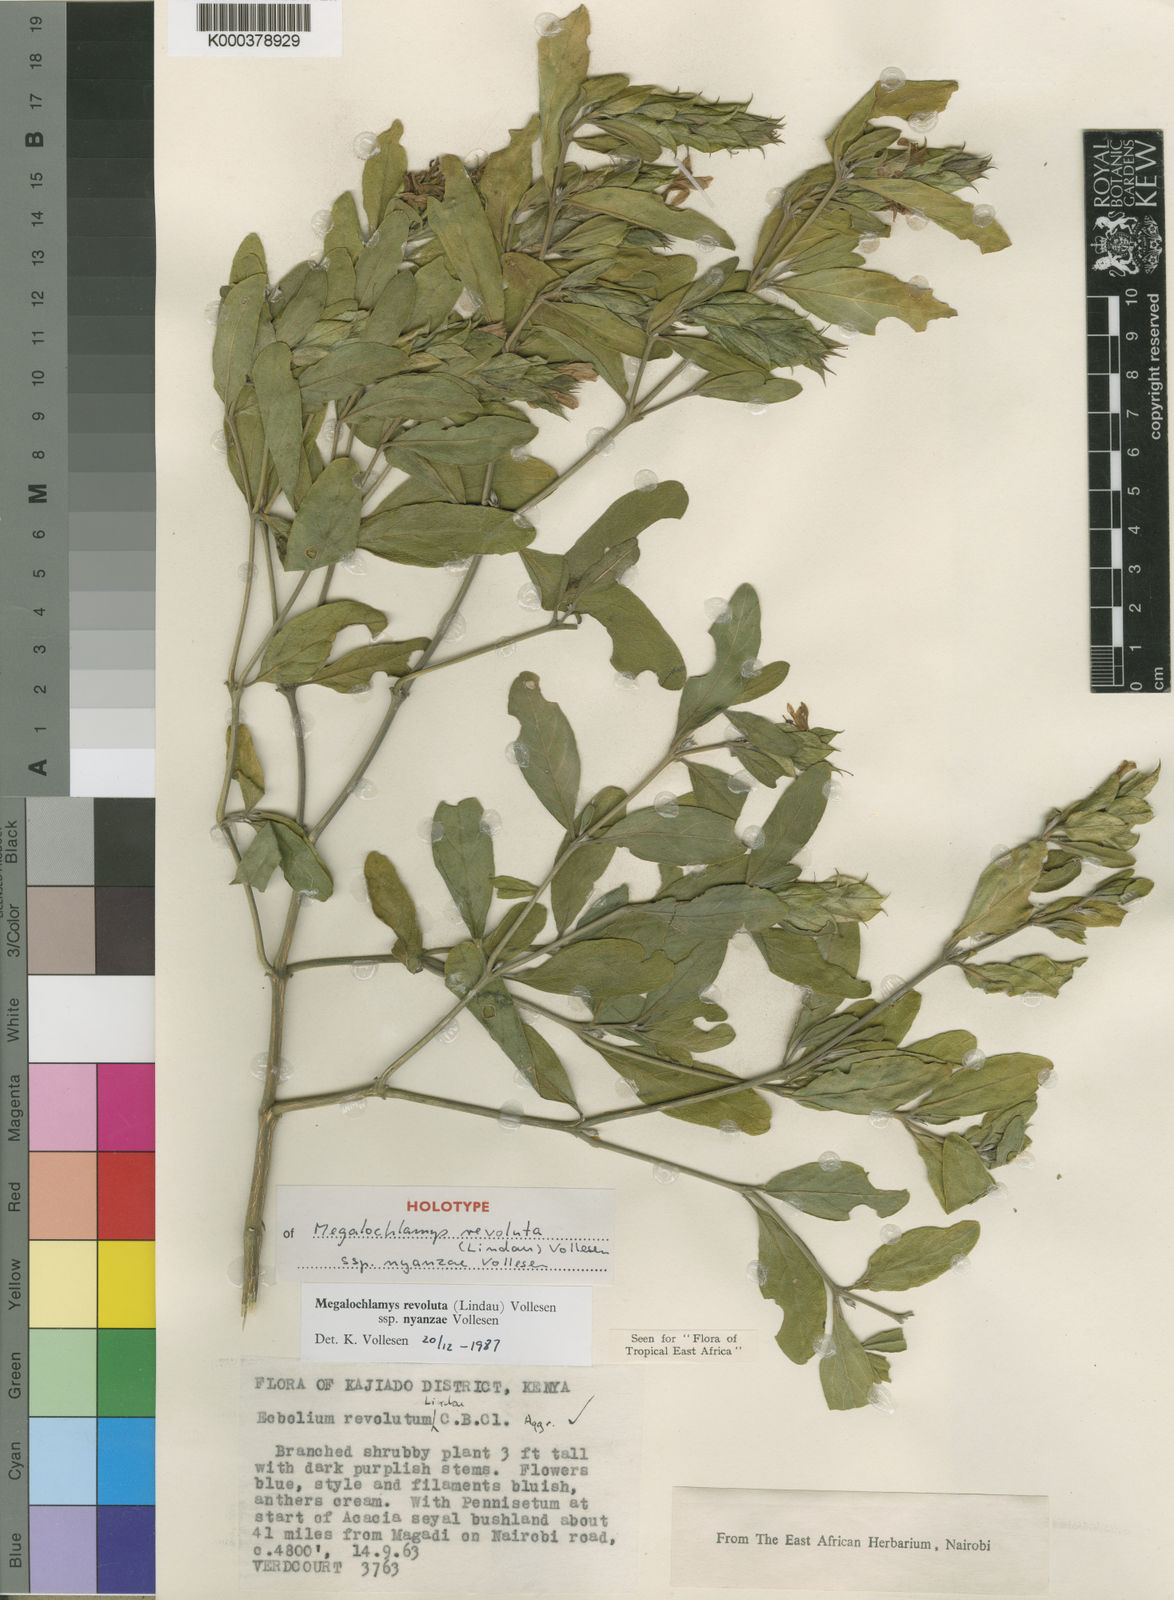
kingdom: Plantae
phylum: Tracheophyta
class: Magnoliopsida
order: Lamiales
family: Acanthaceae
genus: Megalochlamys
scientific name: Megalochlamys kenyensis
